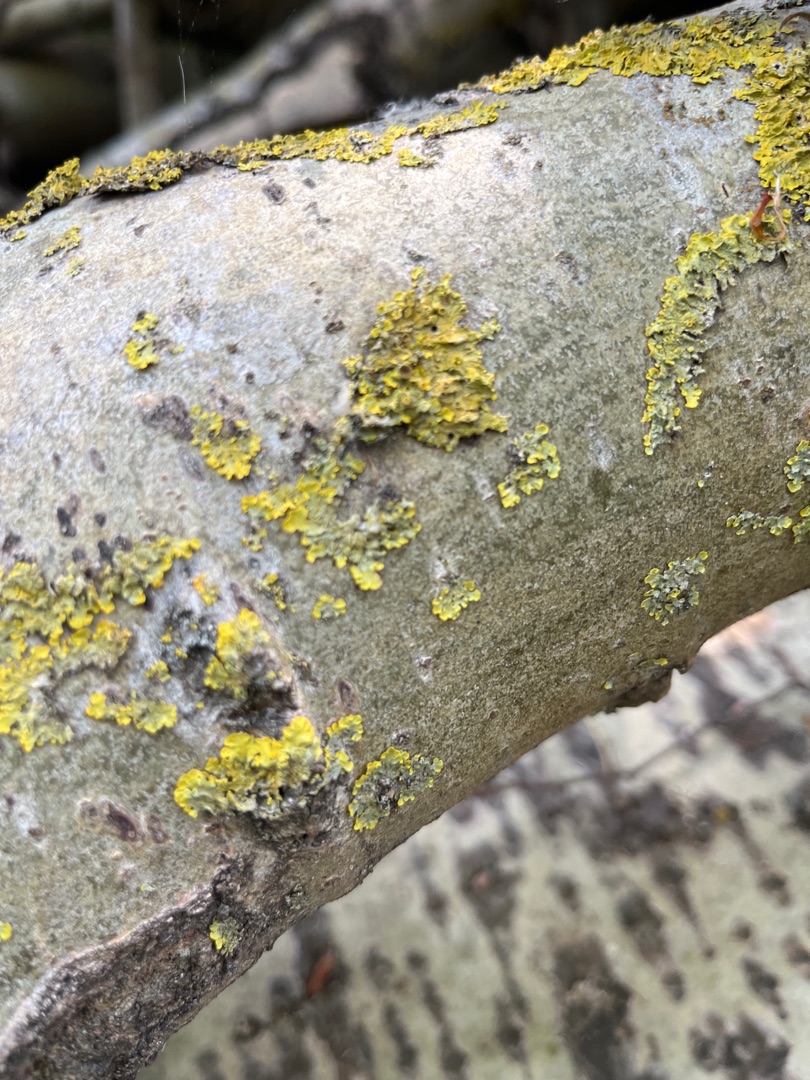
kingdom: Fungi
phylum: Ascomycota
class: Lecanoromycetes
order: Teloschistales
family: Teloschistaceae
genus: Xanthoria
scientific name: Xanthoria parietina
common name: Almindelig væggelav
